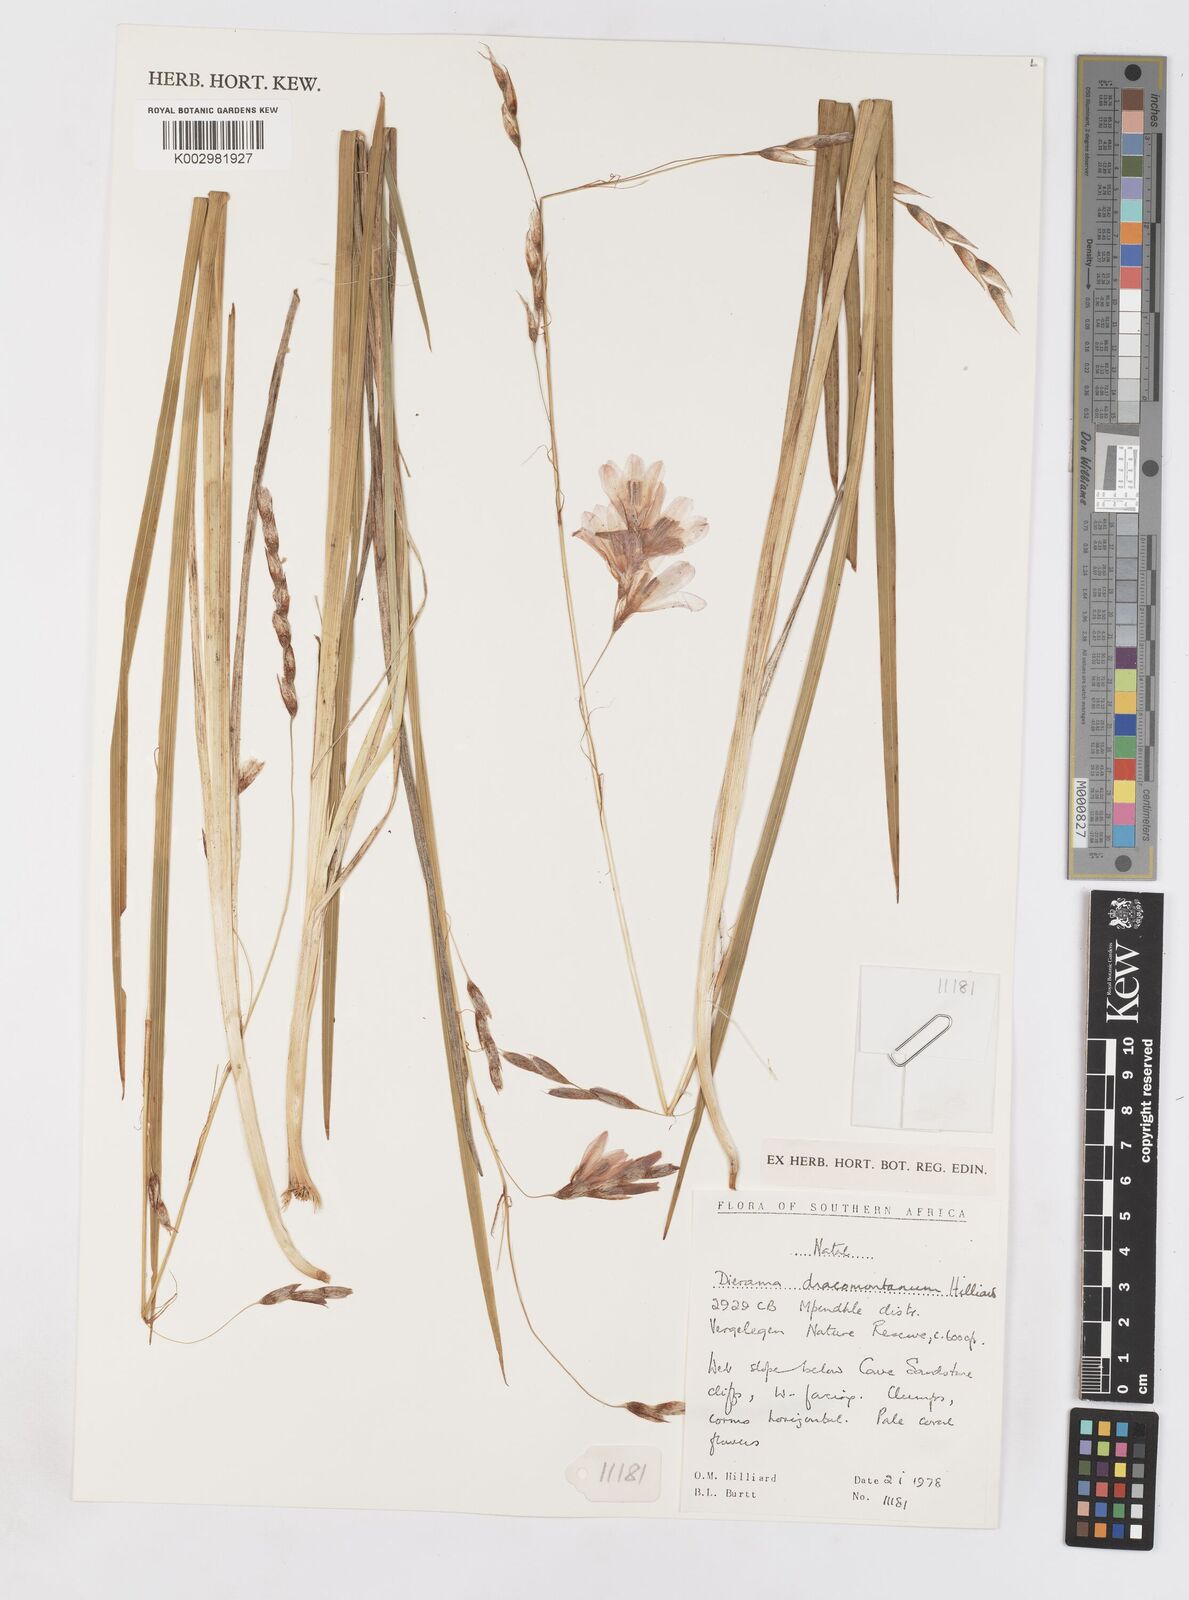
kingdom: Plantae
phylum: Tracheophyta
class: Liliopsida
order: Asparagales
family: Iridaceae
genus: Dierama
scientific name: Dierama dracomontanum
